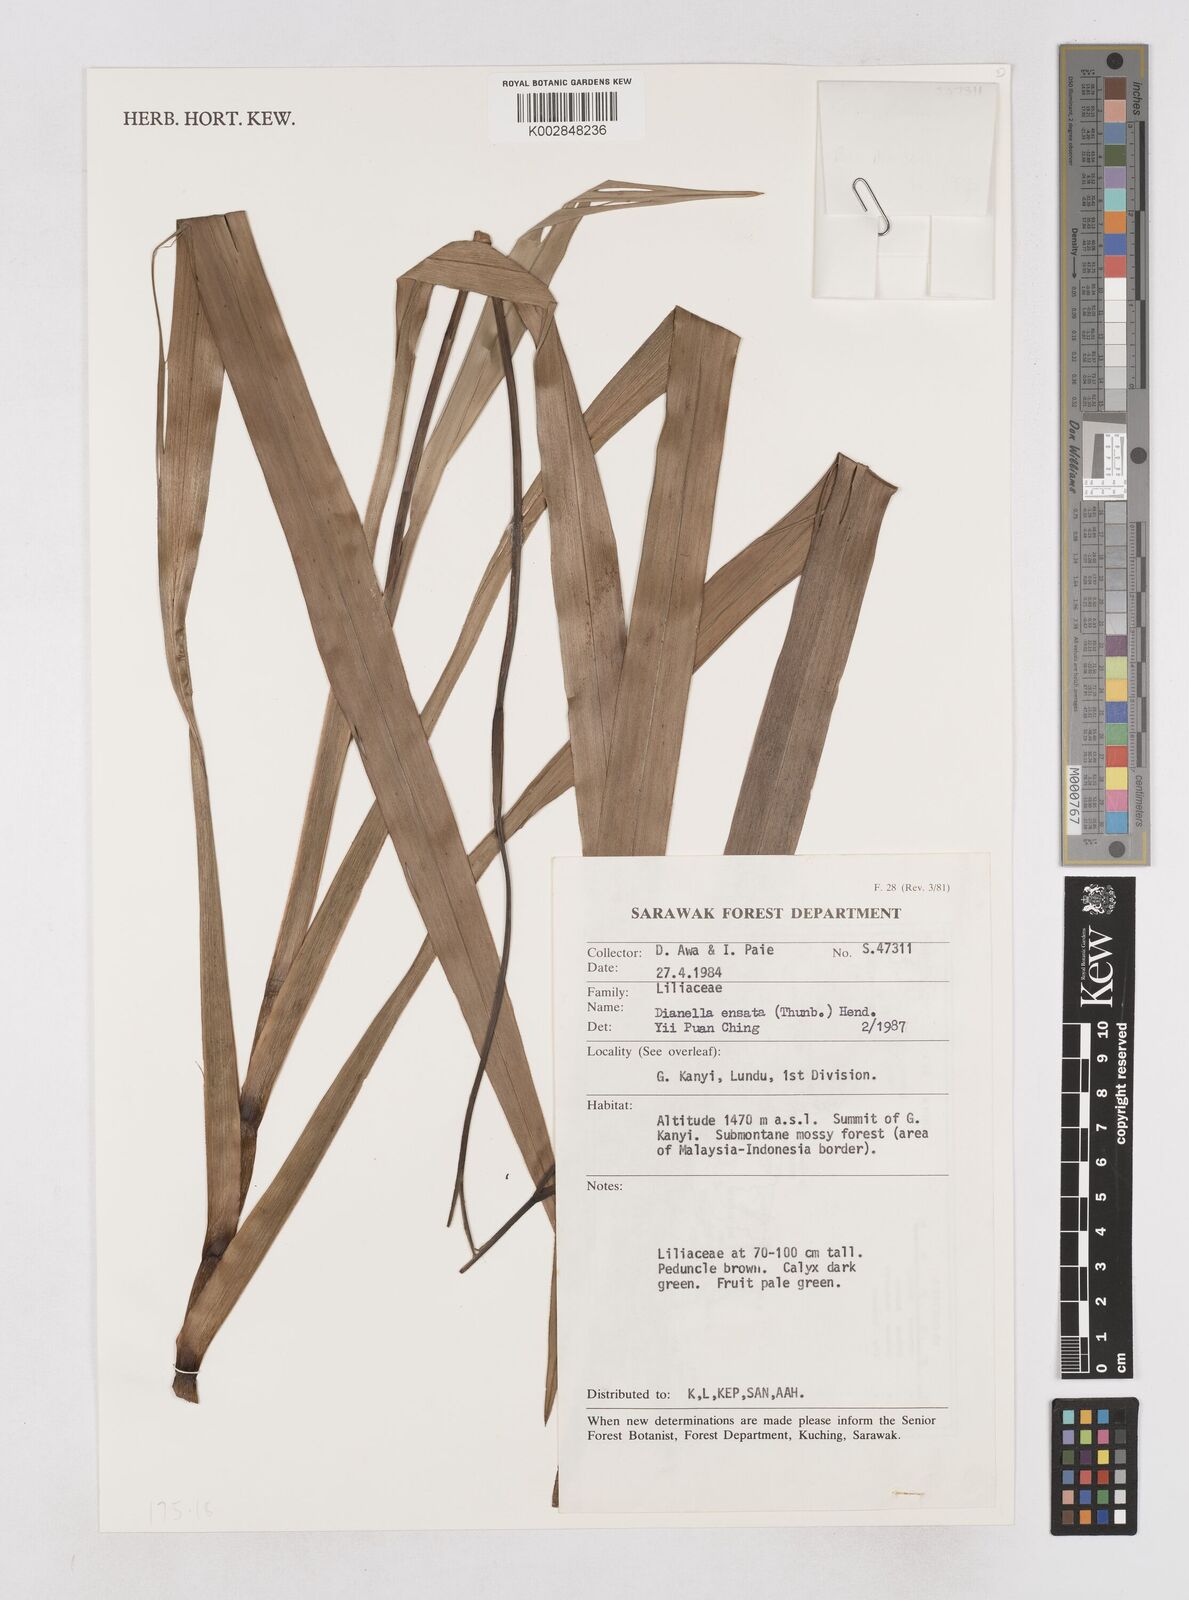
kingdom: Plantae
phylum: Tracheophyta
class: Liliopsida
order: Asparagales
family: Asphodelaceae
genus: Dianella
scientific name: Dianella ensifolia
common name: New zealand lilyplant
